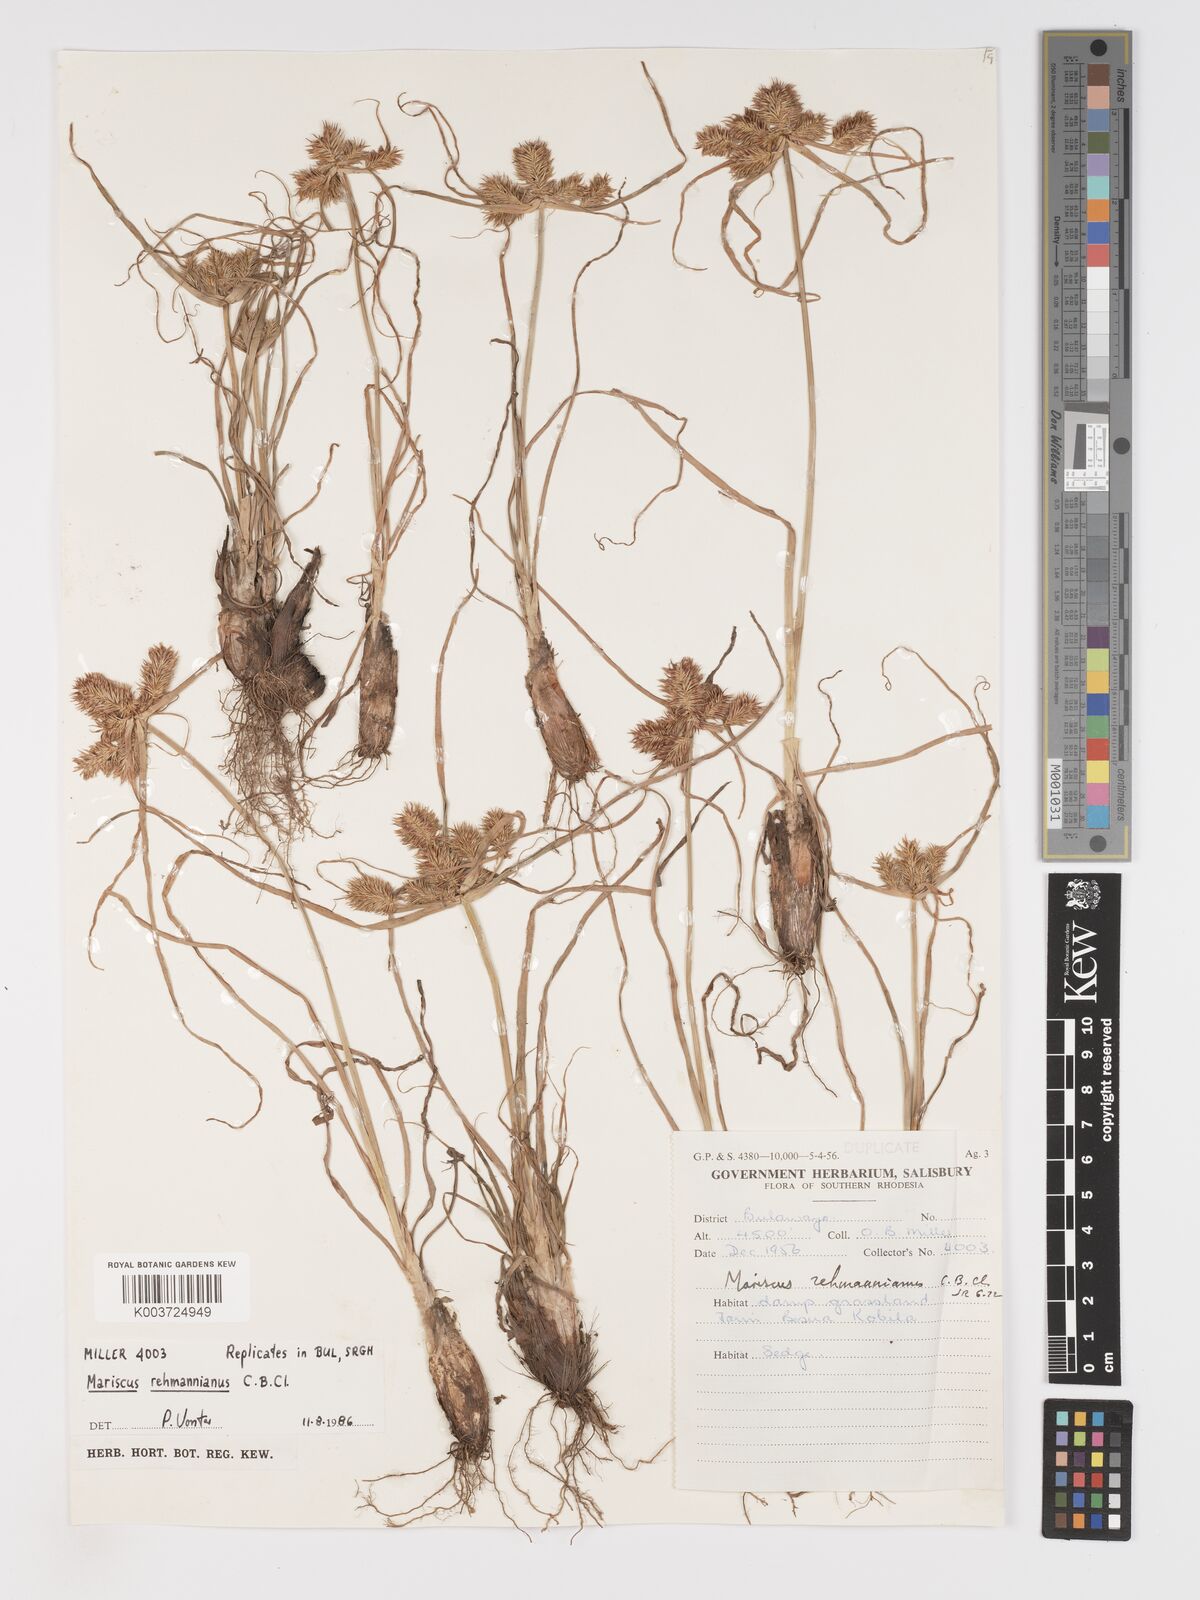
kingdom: Plantae
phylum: Tracheophyta
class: Liliopsida
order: Poales
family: Cyperaceae
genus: Cyperus
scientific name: Cyperus indecorus
